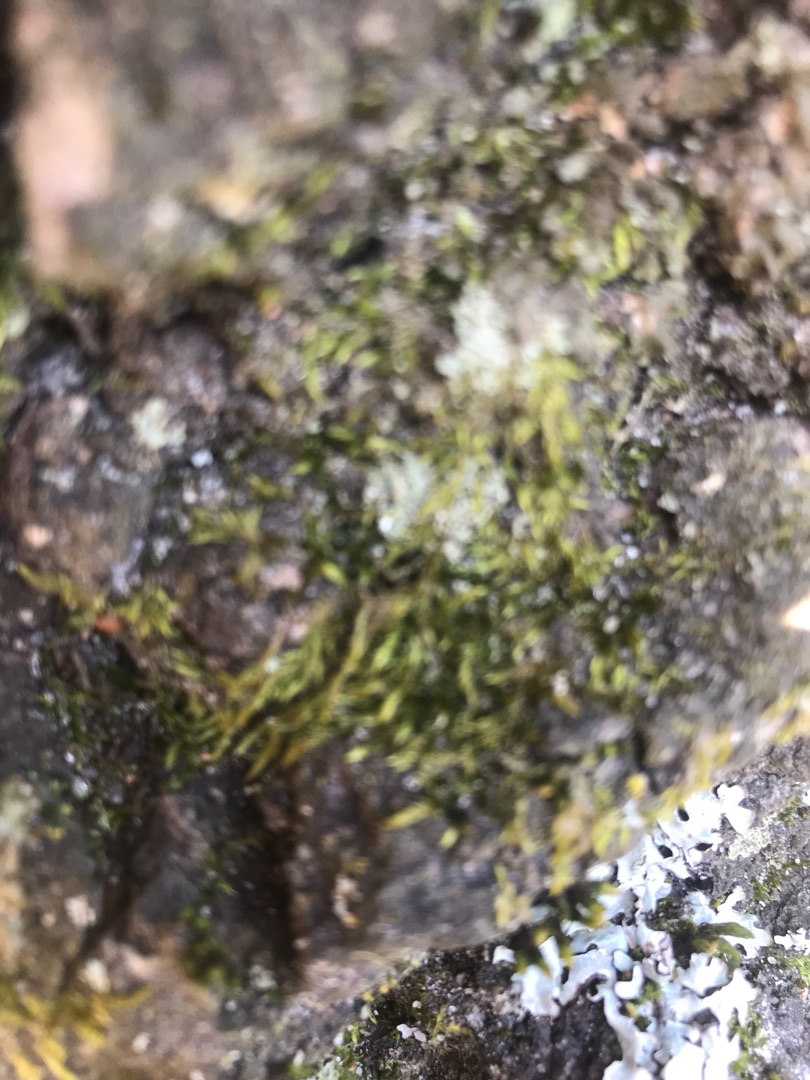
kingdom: Plantae
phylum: Bryophyta
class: Bryopsida
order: Hypnales
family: Hypnaceae
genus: Hypnum
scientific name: Hypnum
